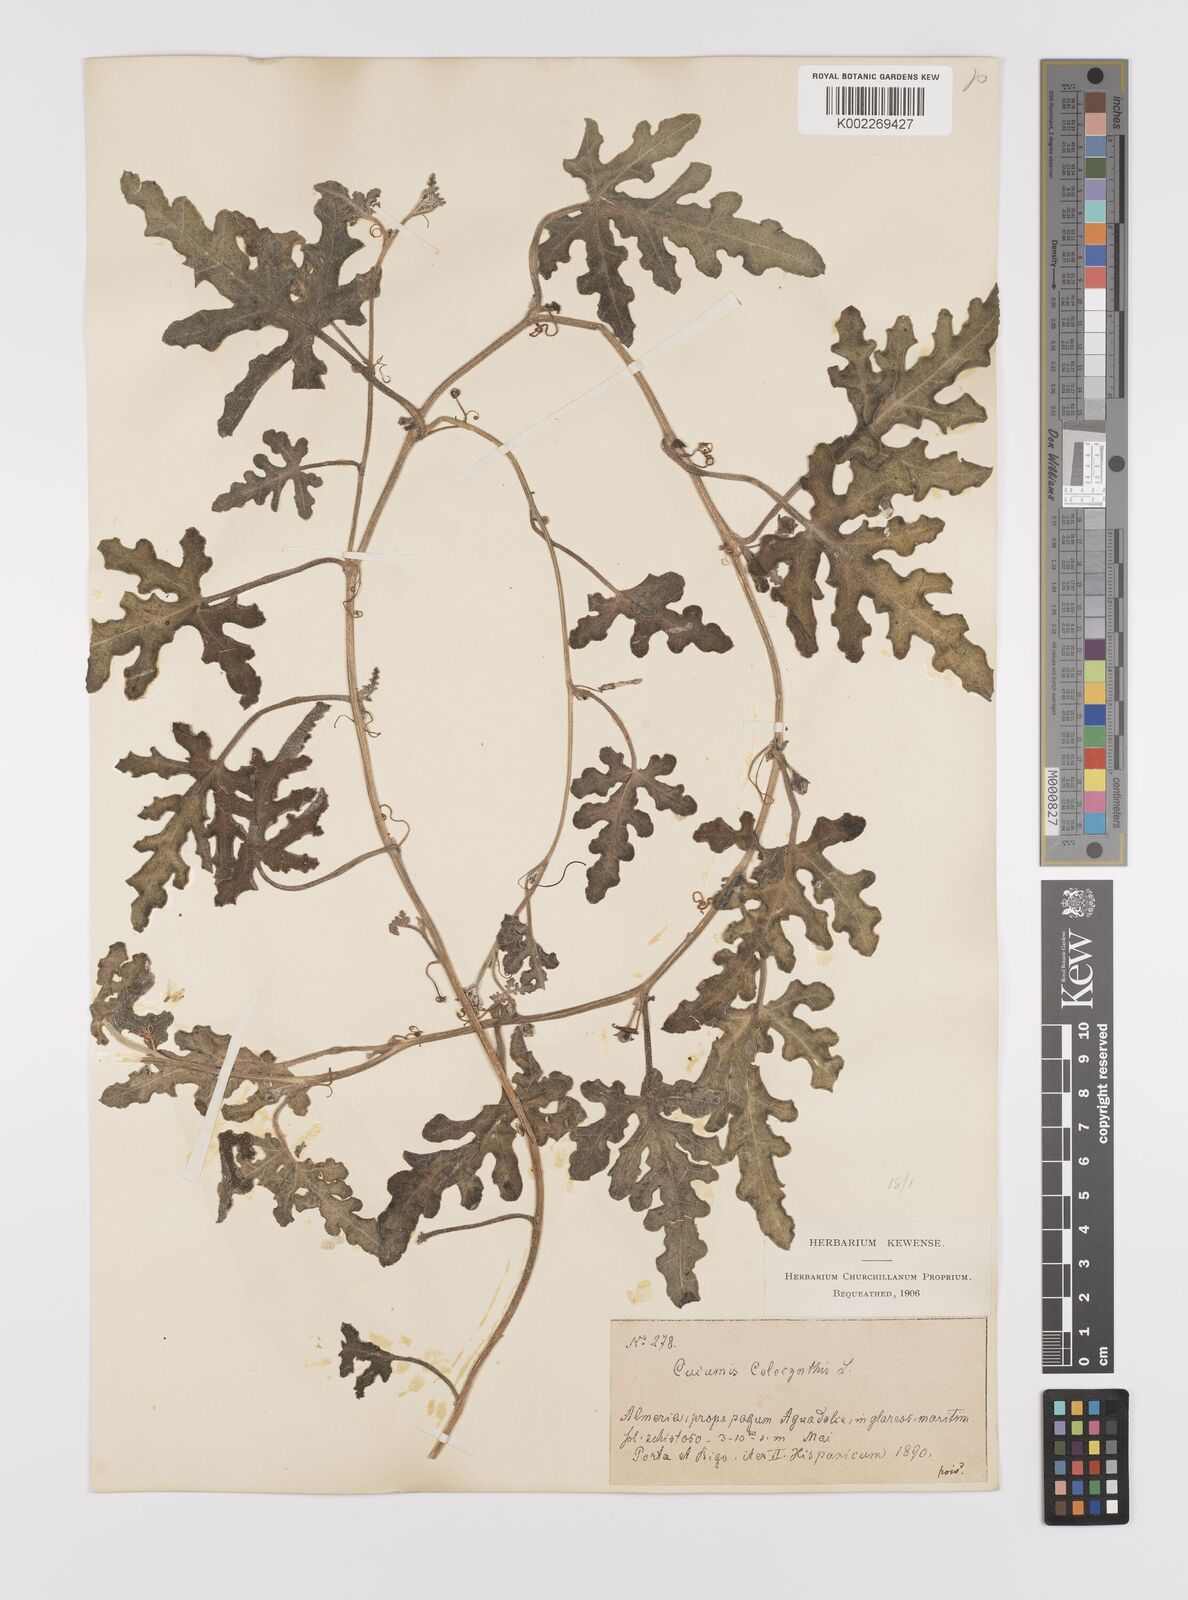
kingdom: Plantae
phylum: Tracheophyta
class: Magnoliopsida
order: Cucurbitales
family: Cucurbitaceae
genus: Citrullus
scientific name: Citrullus colocynthis
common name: Colocynth
